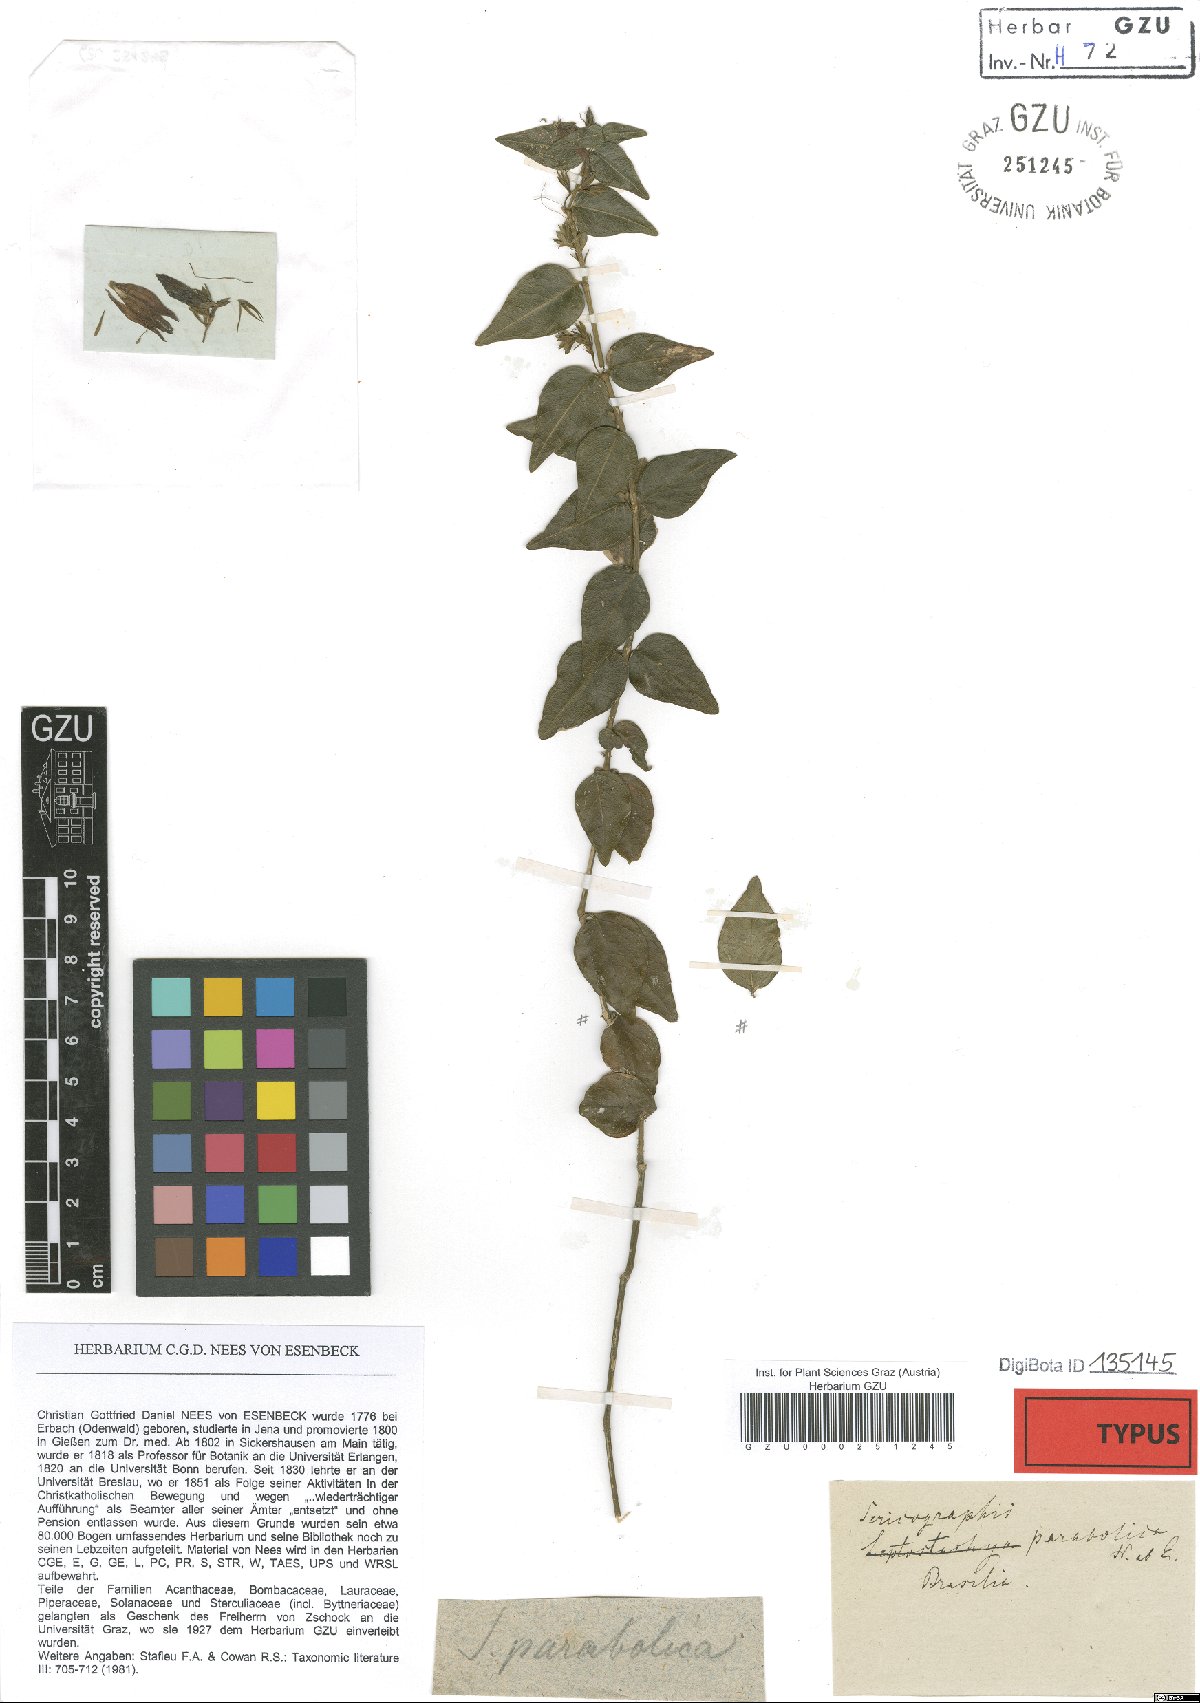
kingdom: Plantae
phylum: Tracheophyta
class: Magnoliopsida
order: Lamiales
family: Acanthaceae
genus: Justicia
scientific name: Justicia parabolica
